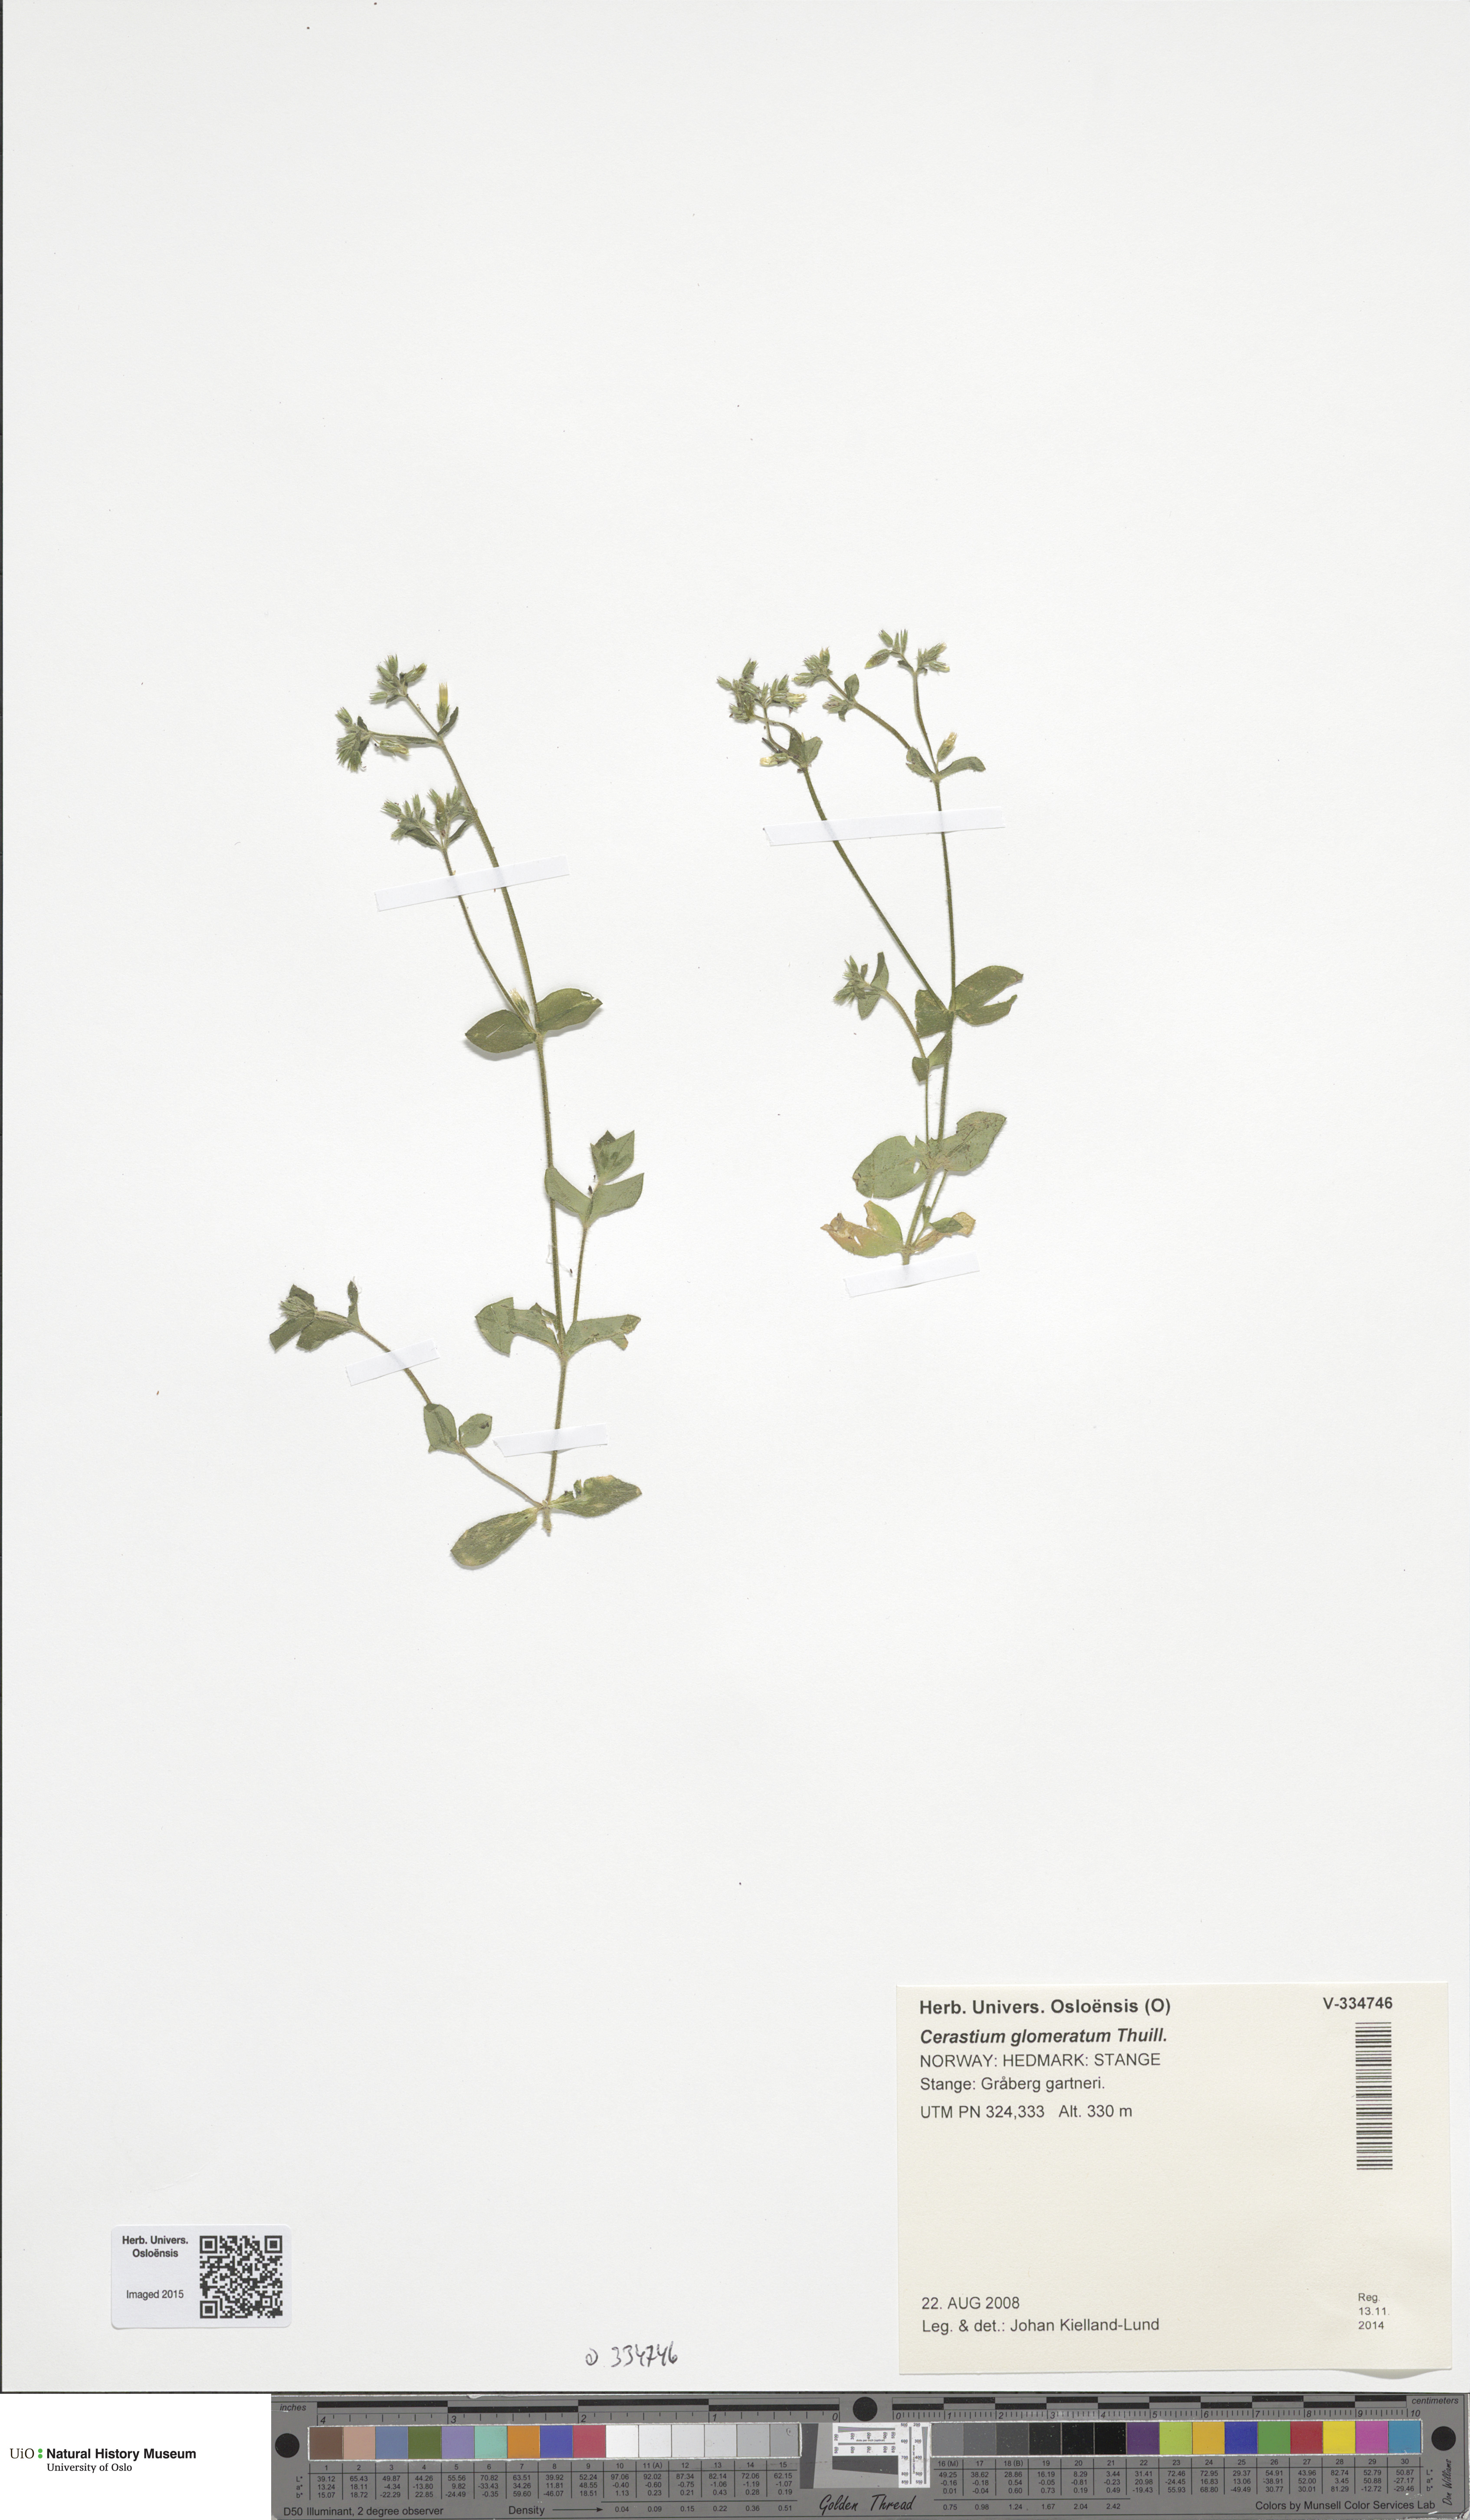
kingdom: Plantae
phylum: Tracheophyta
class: Magnoliopsida
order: Caryophyllales
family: Caryophyllaceae
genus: Cerastium
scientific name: Cerastium glomeratum
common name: Sticky chickweed
